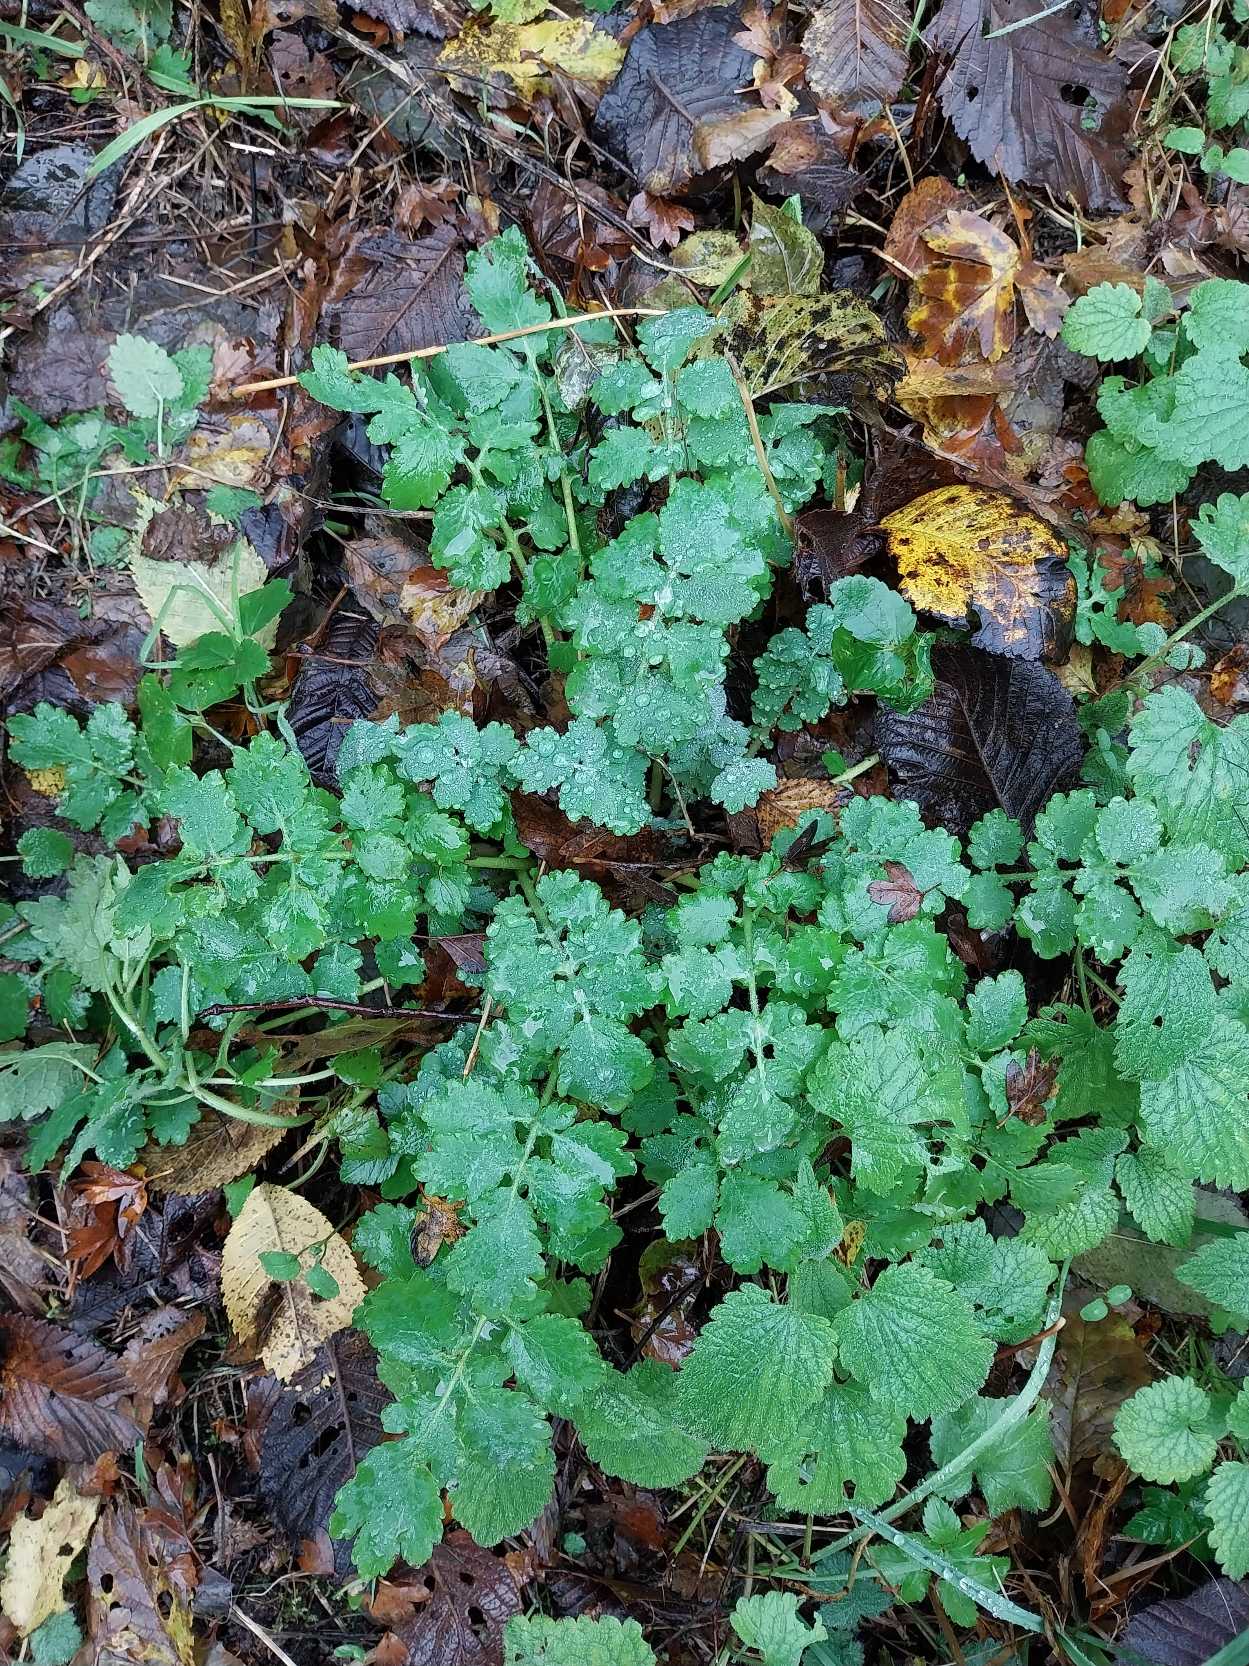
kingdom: Plantae
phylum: Tracheophyta
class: Magnoliopsida
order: Ranunculales
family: Papaveraceae
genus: Chelidonium
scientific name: Chelidonium majus
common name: Svaleurt
